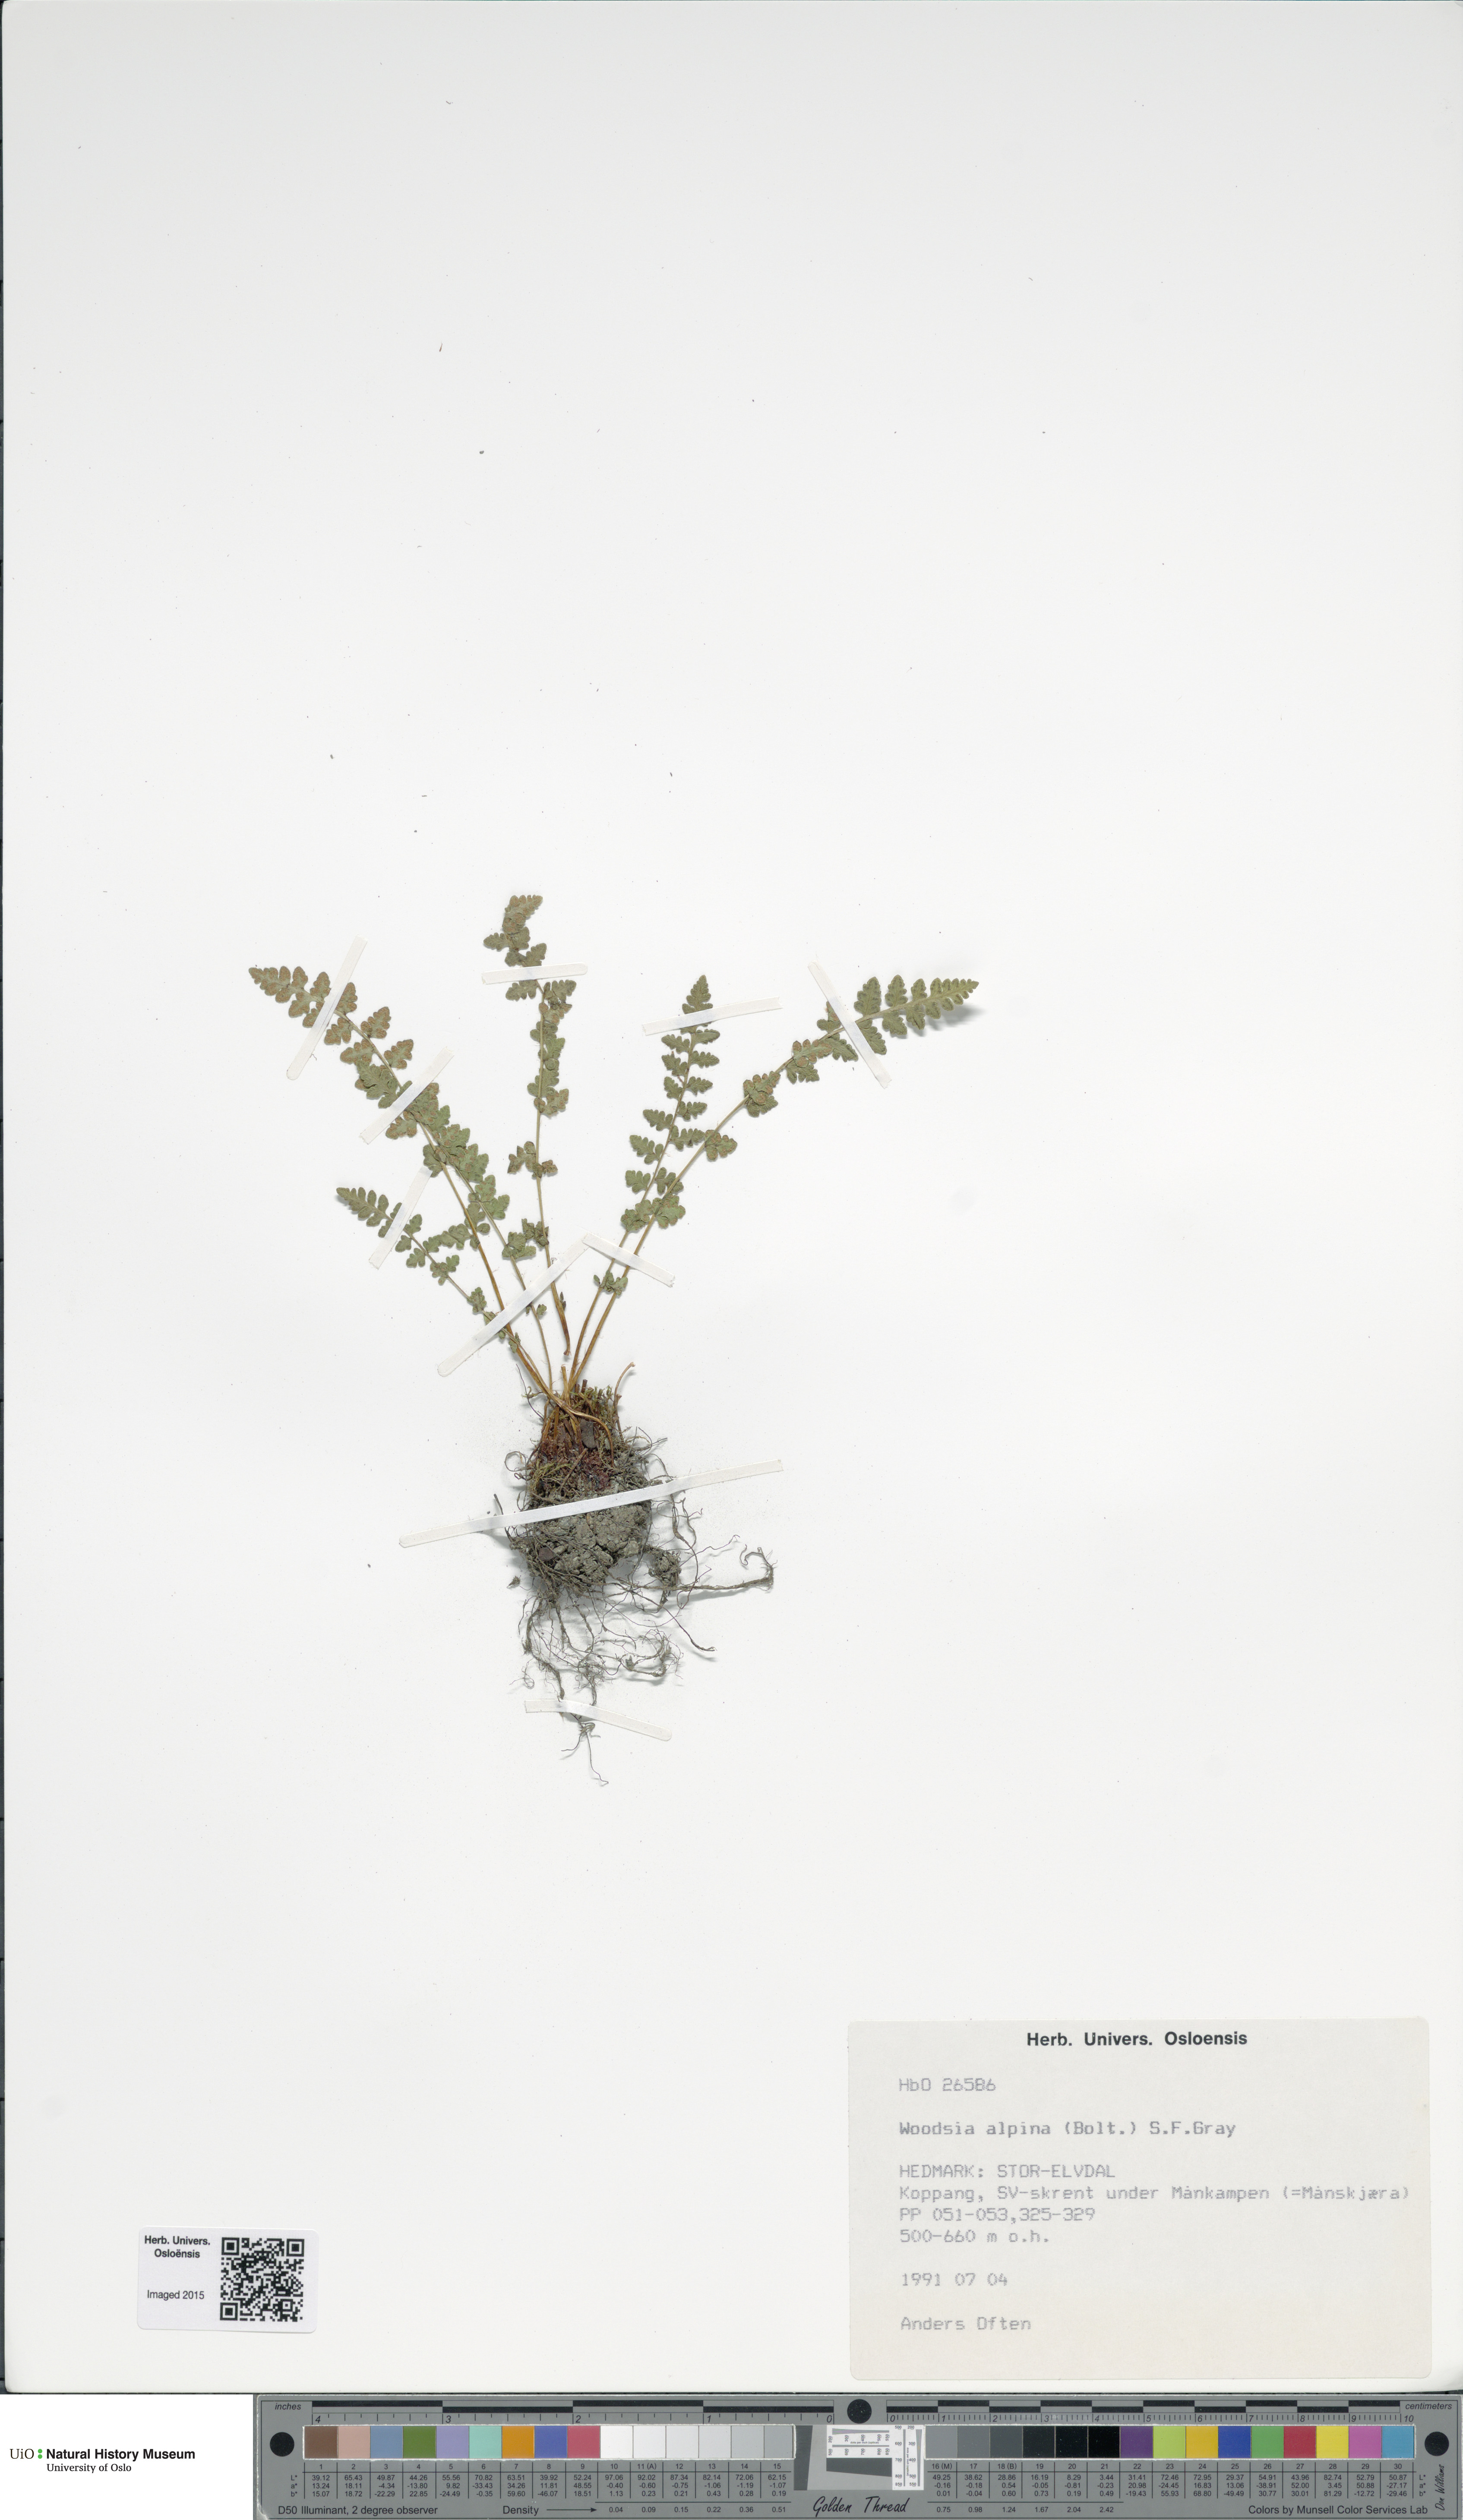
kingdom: Plantae
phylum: Tracheophyta
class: Polypodiopsida
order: Polypodiales
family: Woodsiaceae
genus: Woodsia
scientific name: Woodsia alpina
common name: Alpine woodsia
